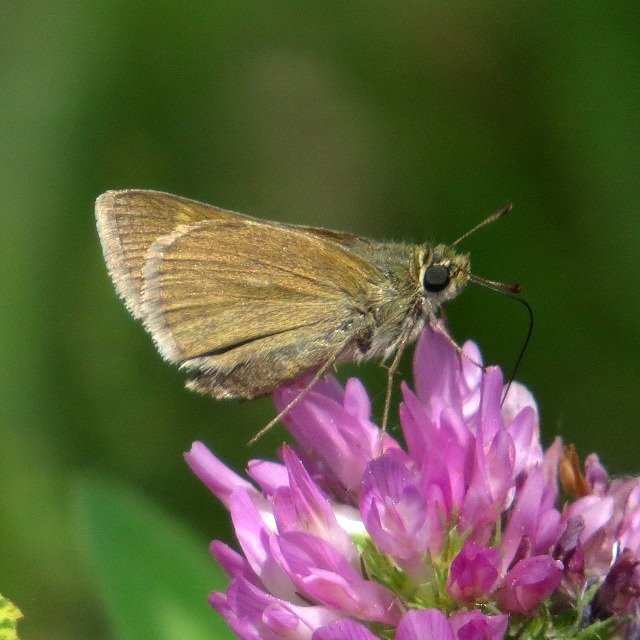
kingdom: Animalia
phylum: Arthropoda
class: Insecta
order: Lepidoptera
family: Hesperiidae
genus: Polites
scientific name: Polites themistocles
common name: Tawny-edged Skipper
